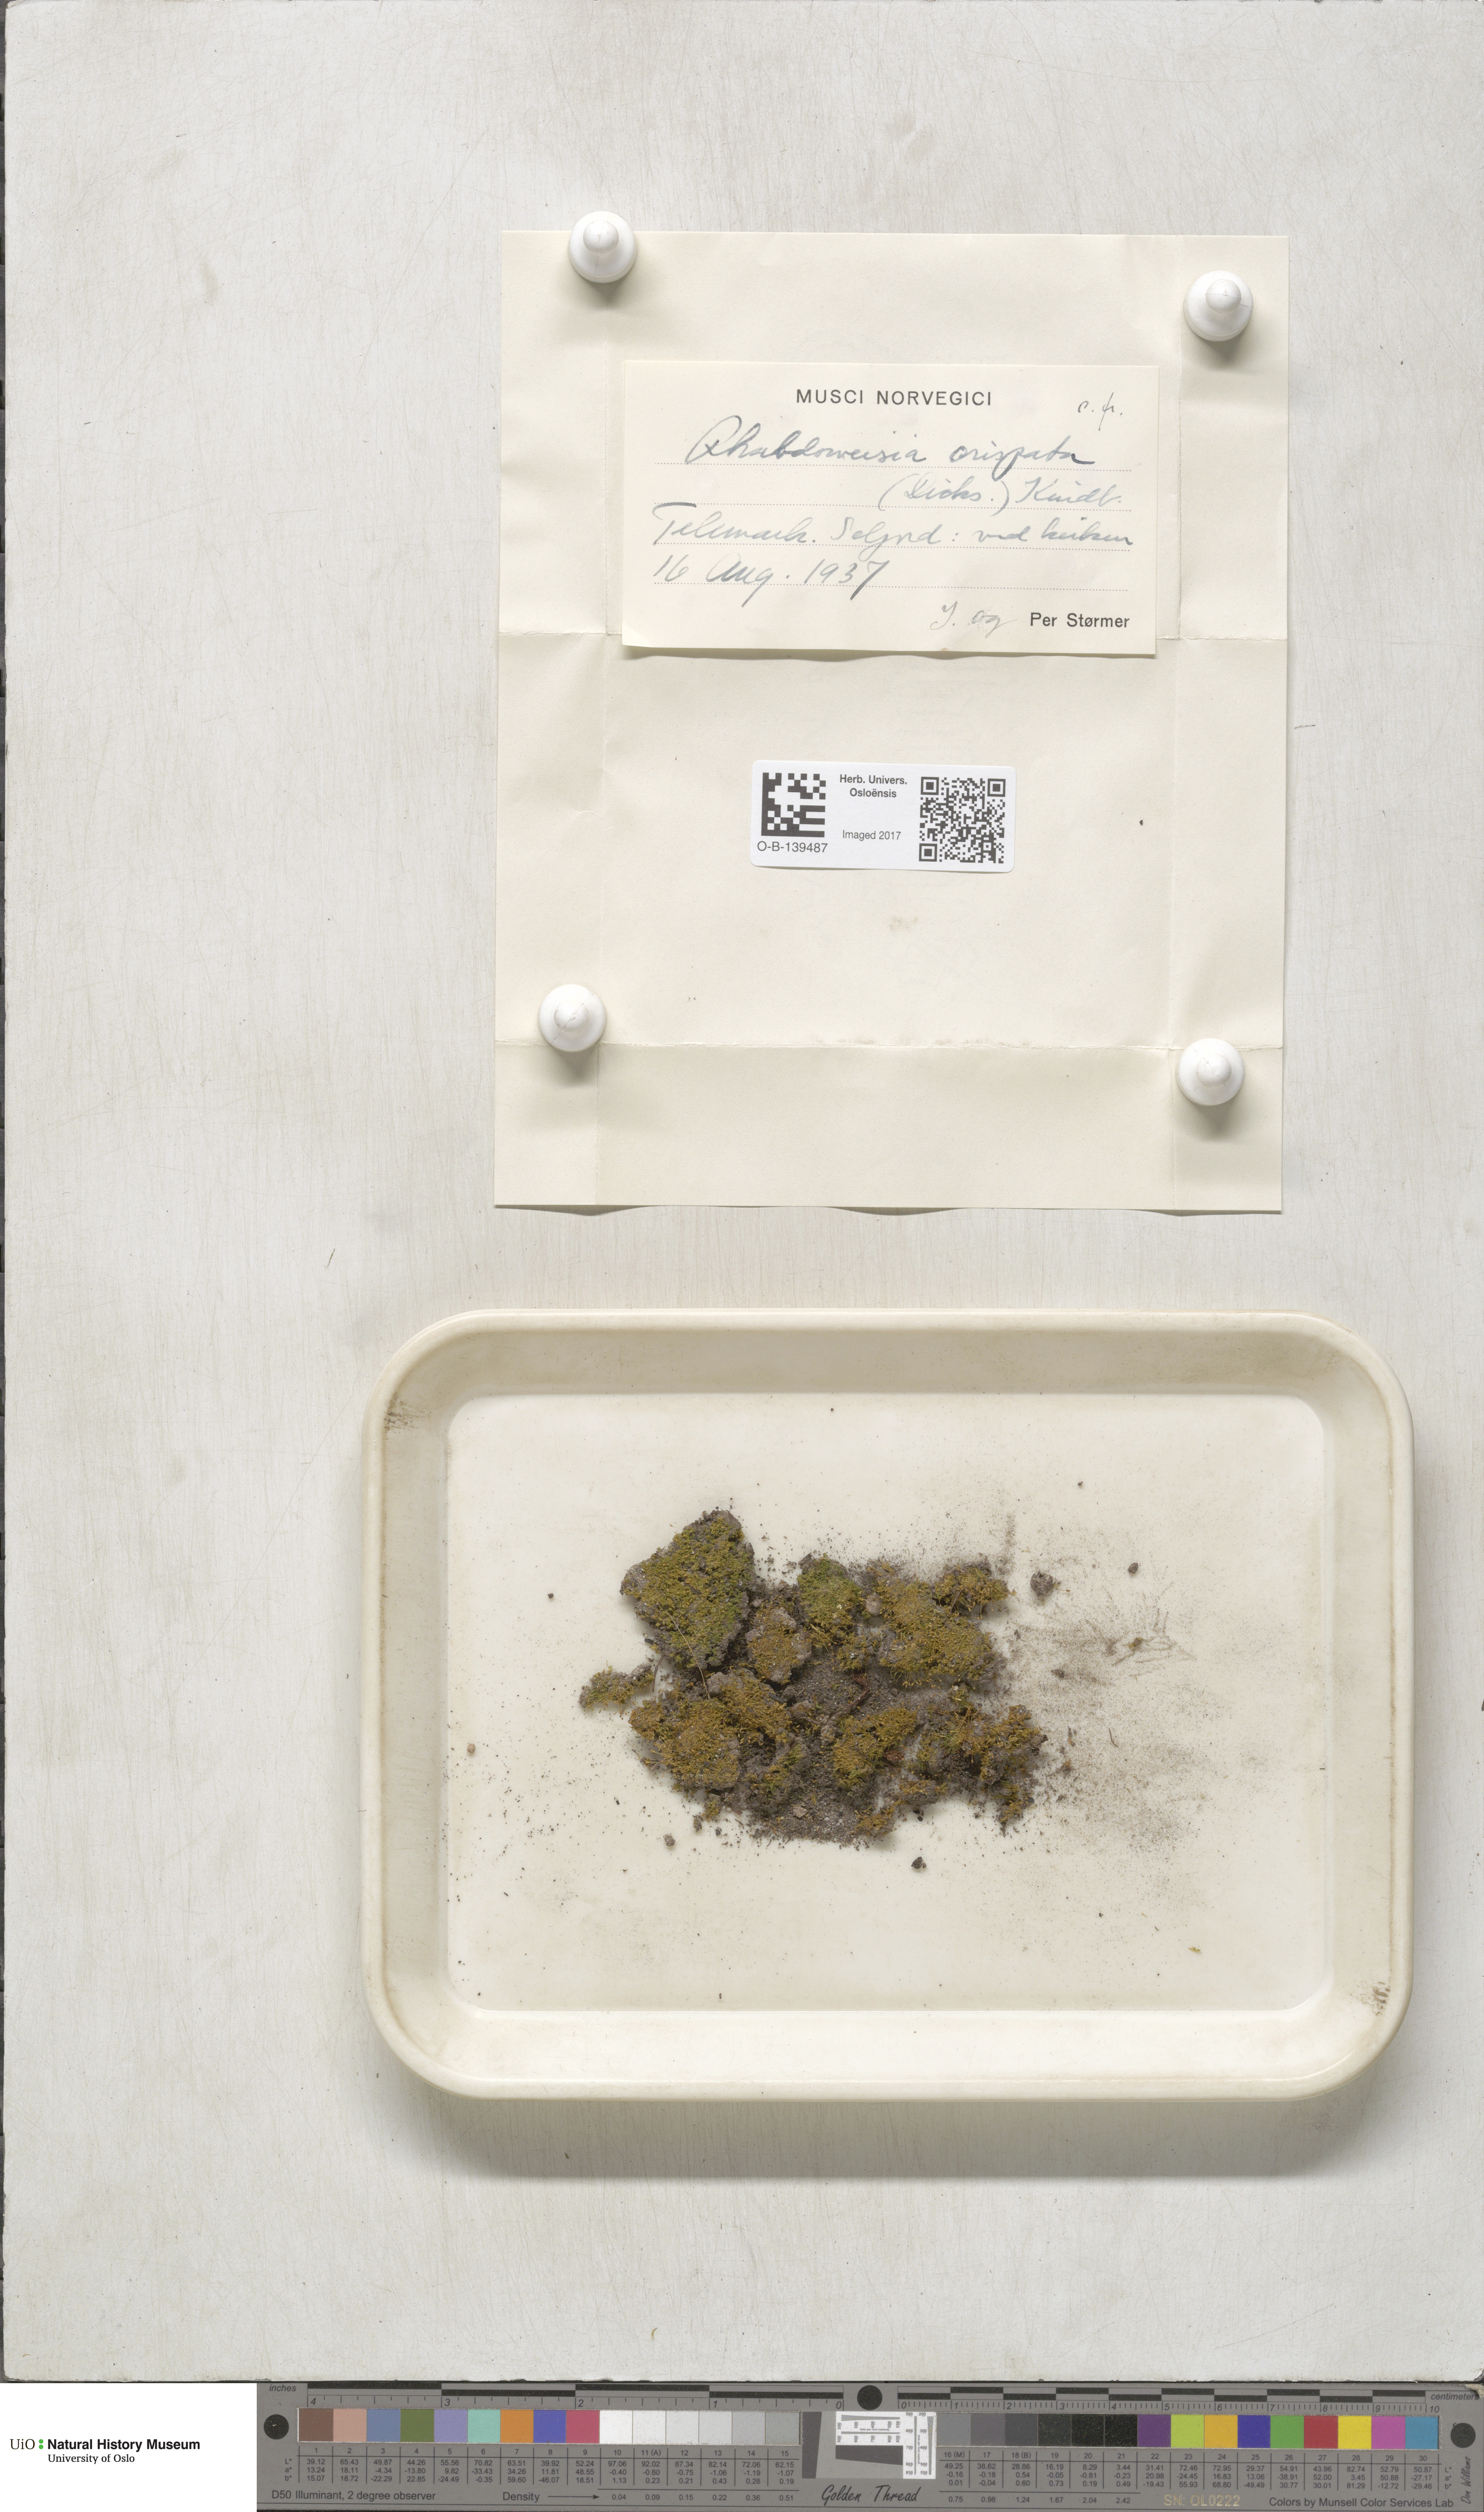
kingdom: Plantae
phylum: Bryophyta
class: Bryopsida
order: Dicranales
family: Rhabdoweisiaceae
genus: Rhabdoweisia
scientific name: Rhabdoweisia crispata
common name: Fine-toothed streak moss
